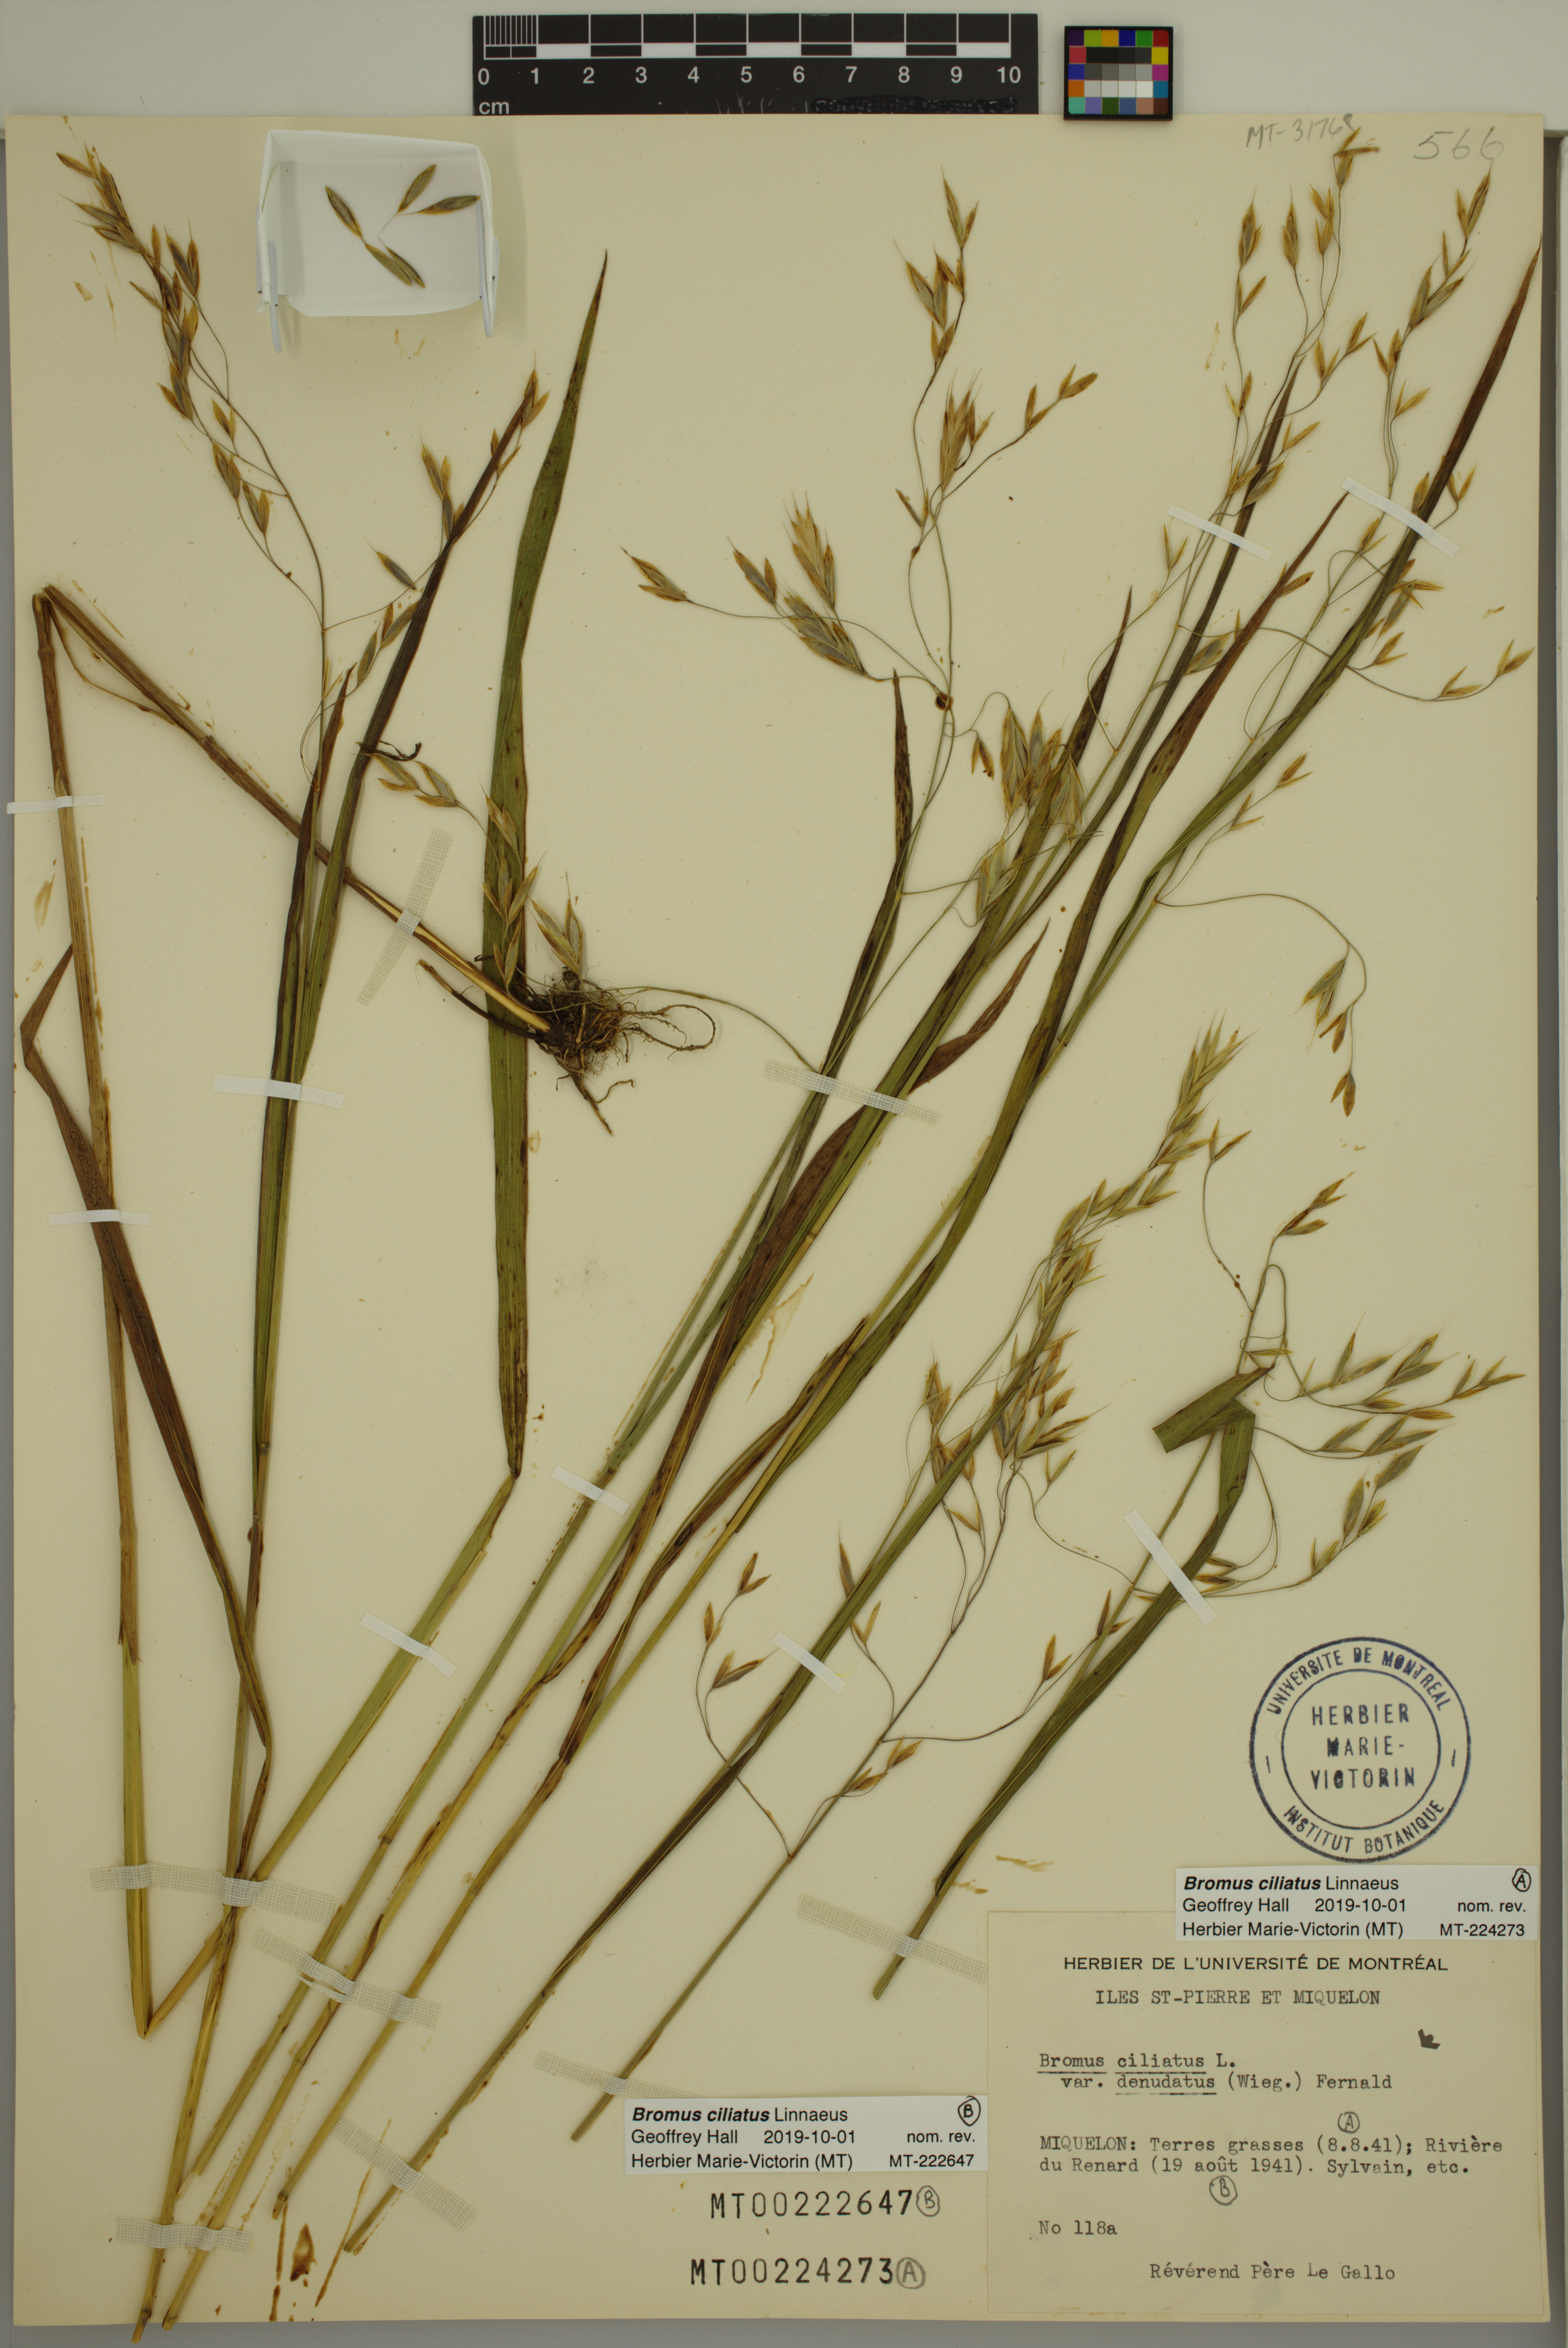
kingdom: Plantae
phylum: Tracheophyta
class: Liliopsida
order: Poales
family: Poaceae
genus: Bromus
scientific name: Bromus ciliatus
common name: Fringe brome
